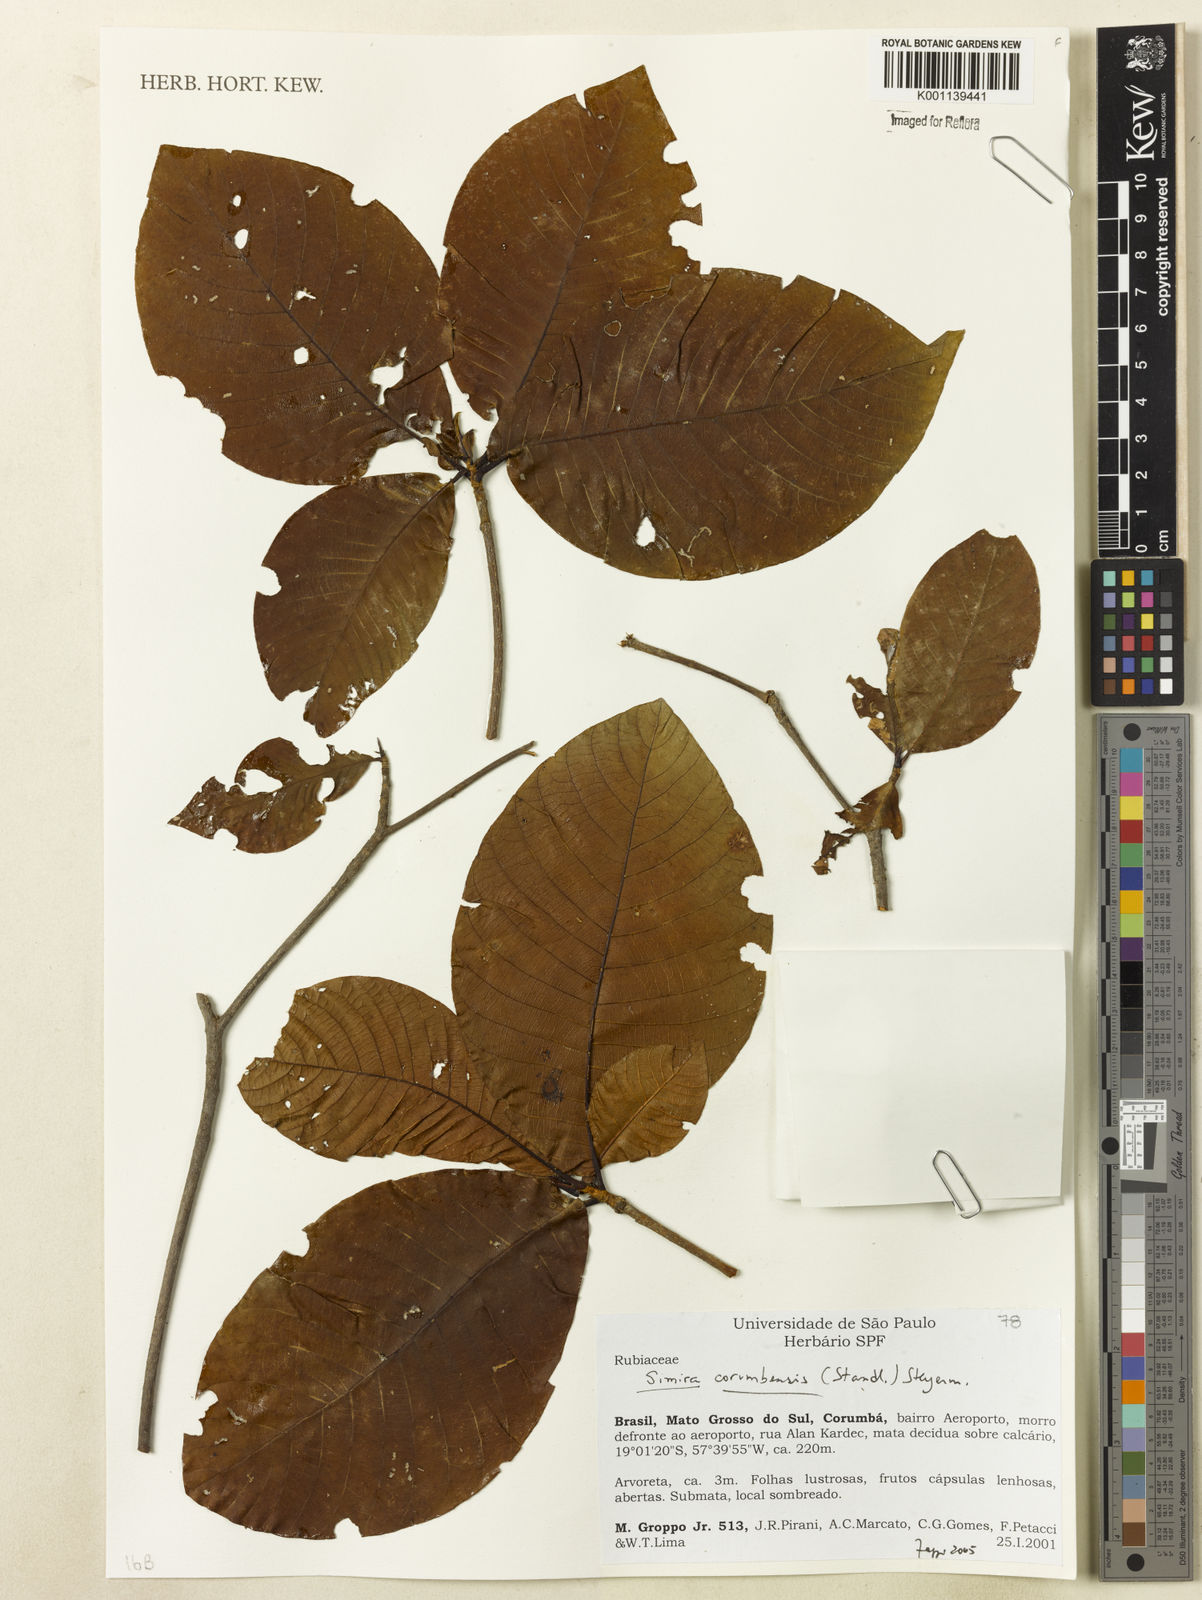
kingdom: Plantae
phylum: Tracheophyta
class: Magnoliopsida
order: Gentianales
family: Rubiaceae
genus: Simira
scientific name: Simira corumbensis
